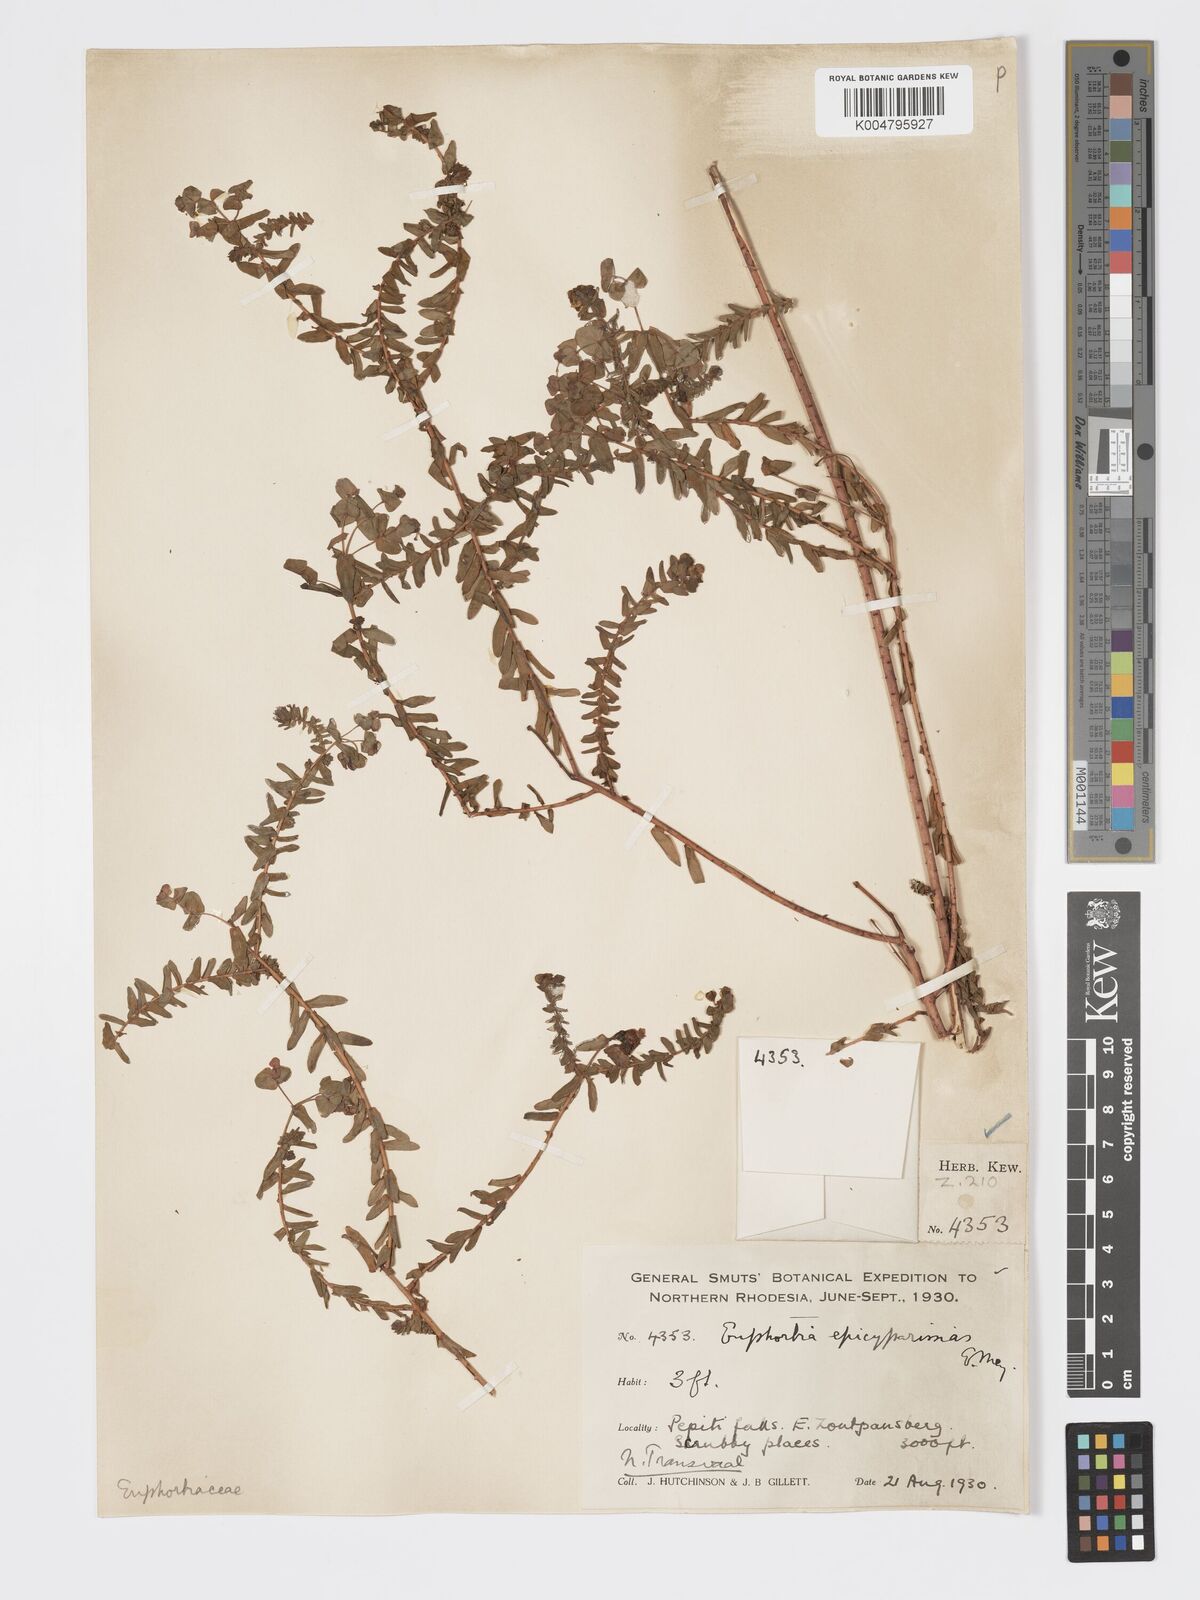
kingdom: Plantae
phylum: Tracheophyta
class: Magnoliopsida
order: Malpighiales
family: Euphorbiaceae
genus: Euphorbia
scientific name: Euphorbia natalensis
